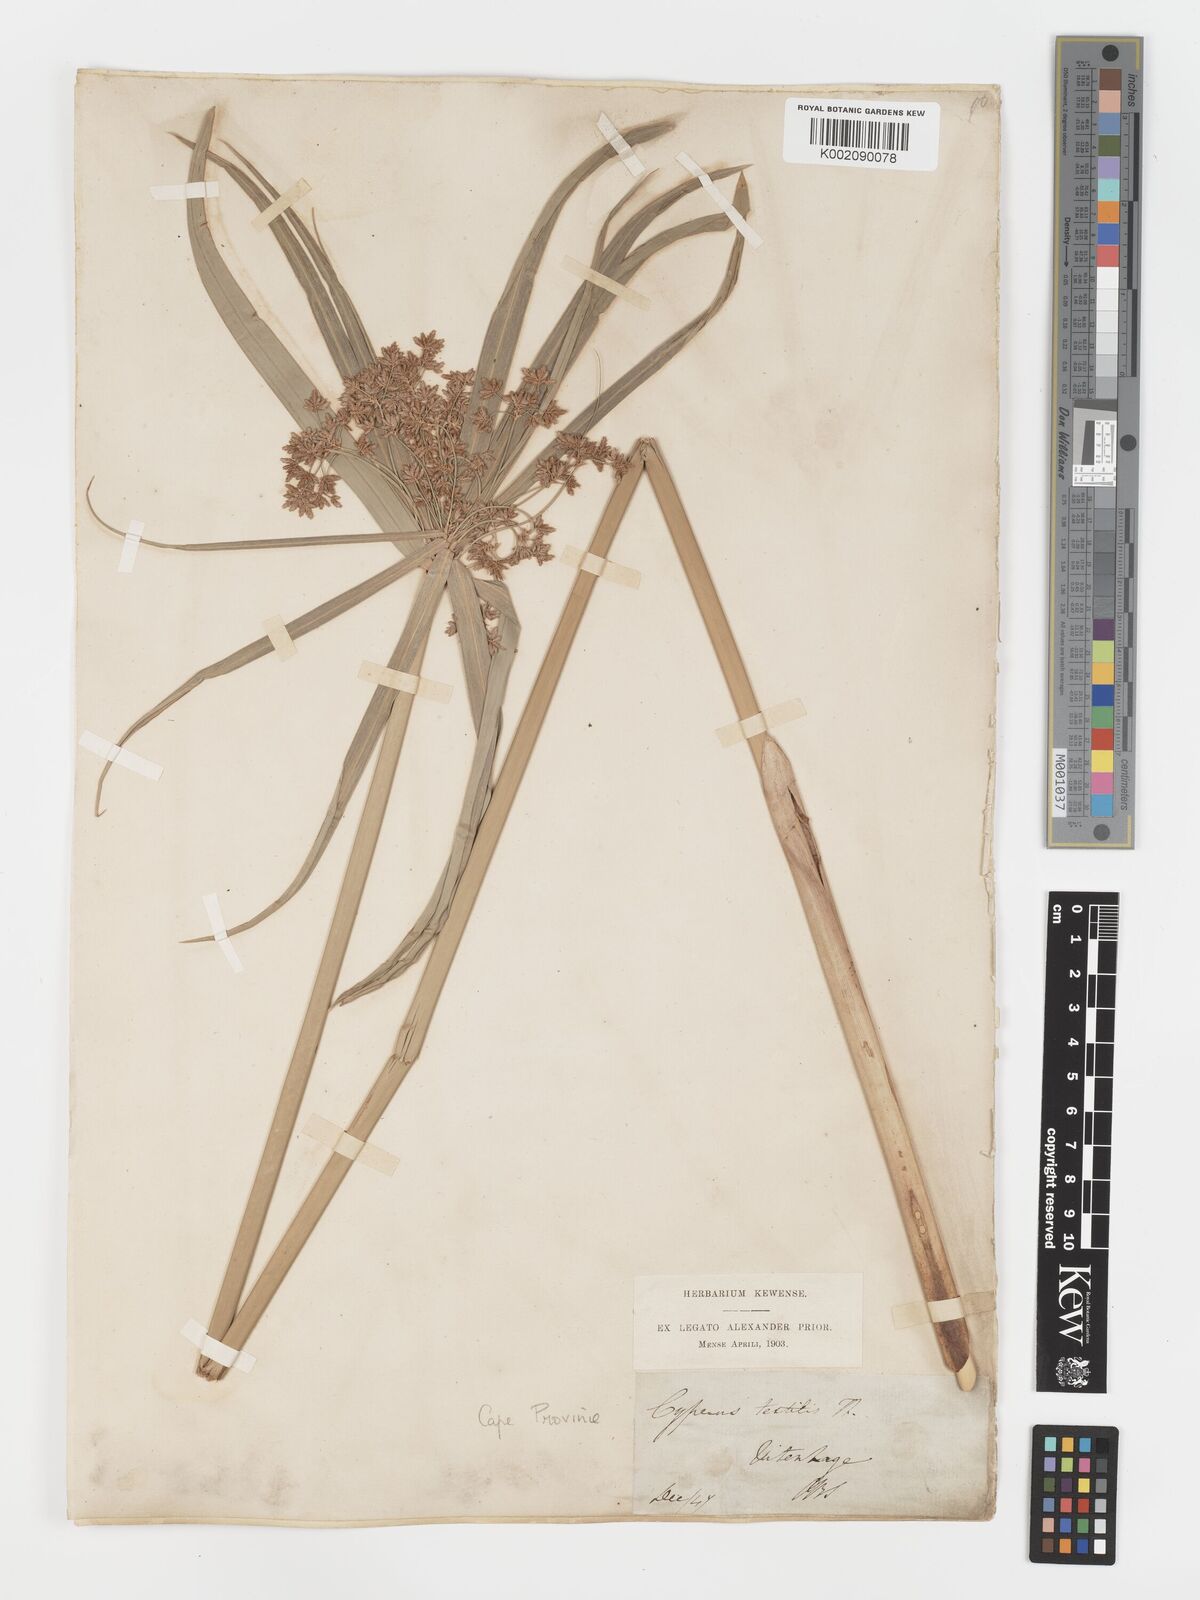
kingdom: Plantae
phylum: Tracheophyta
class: Liliopsida
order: Poales
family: Cyperaceae
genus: Cyperus
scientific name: Cyperus alternifolius
